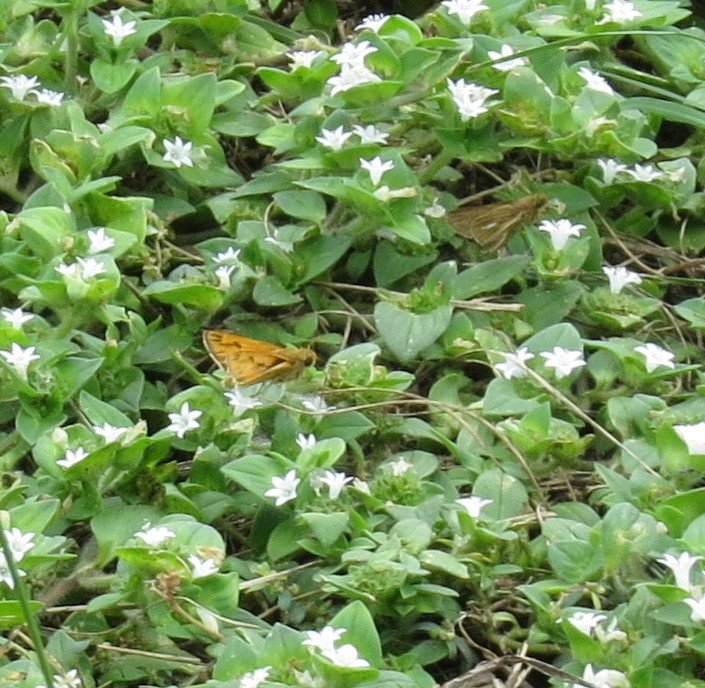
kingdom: Animalia
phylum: Arthropoda
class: Insecta
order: Lepidoptera
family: Hesperiidae
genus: Panoquina
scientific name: Panoquina panoquin
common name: Salt Marsh Skipper
